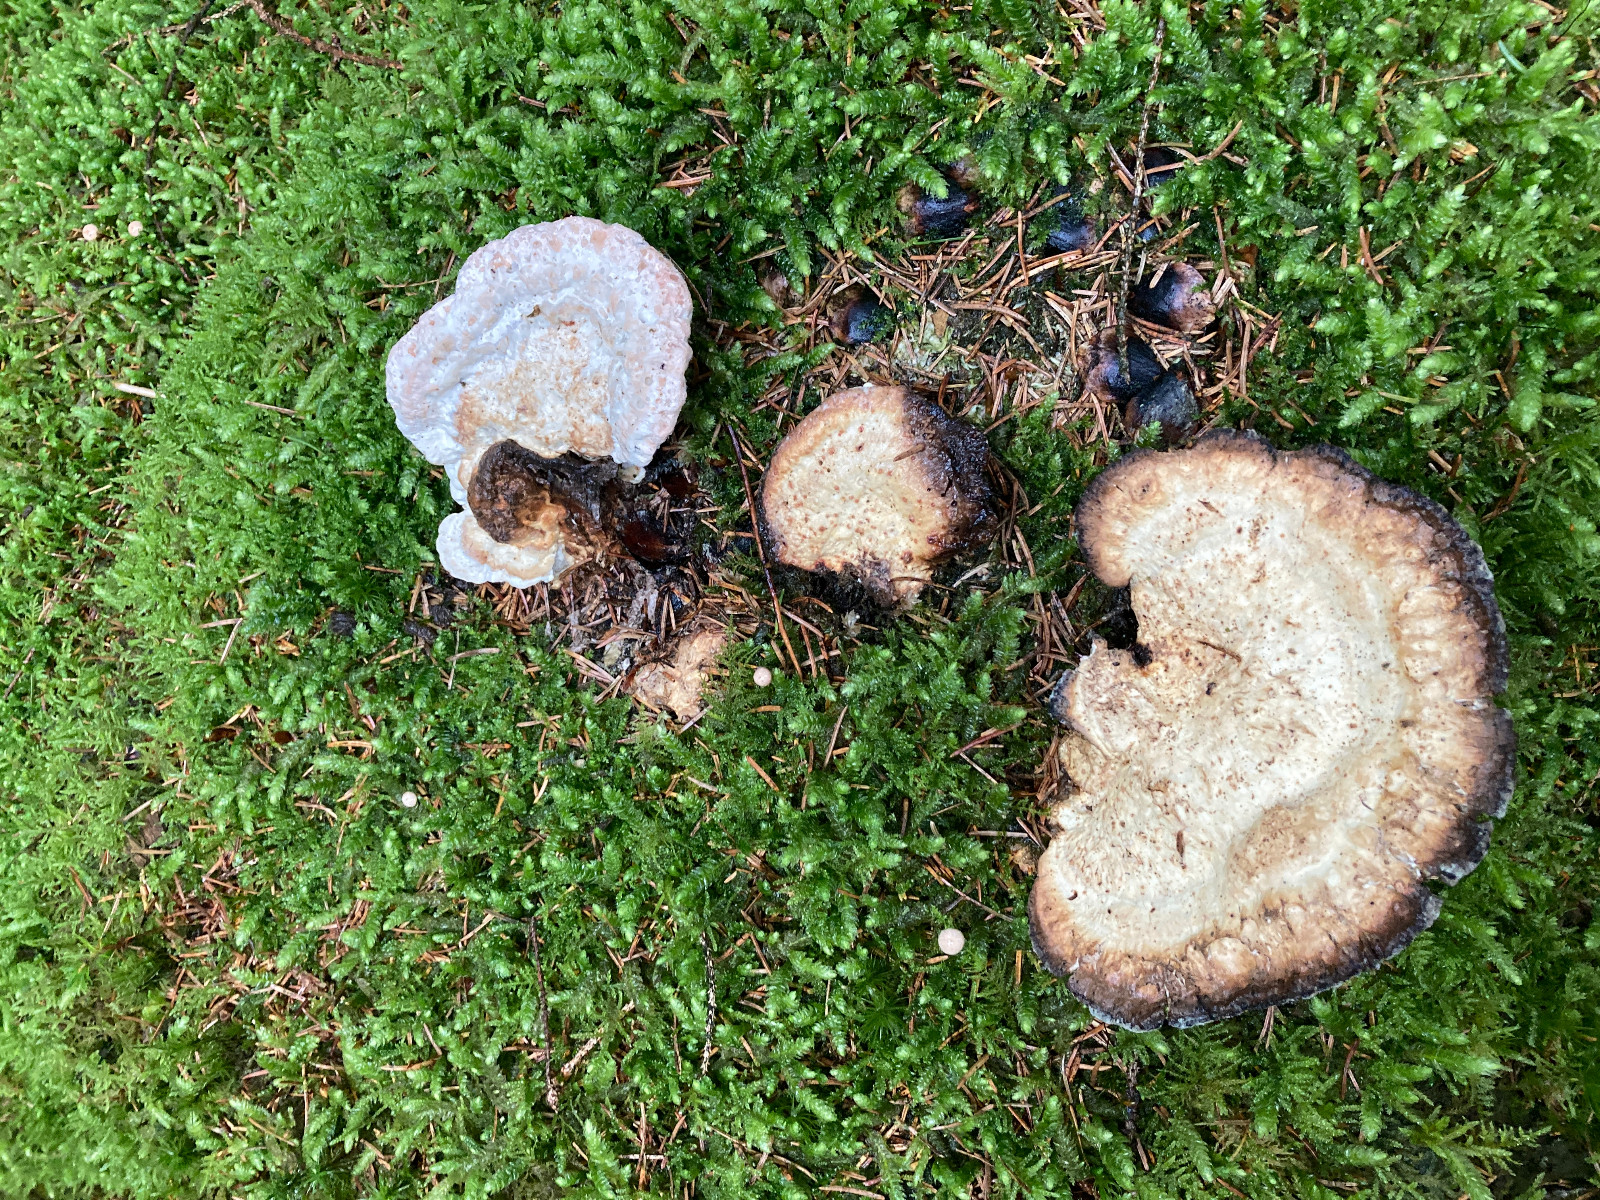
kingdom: Fungi
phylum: Basidiomycota
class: Agaricomycetes
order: Polyporales
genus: Calcipostia
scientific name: Calcipostia guttulata
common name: dråbe-kødporesvamp
